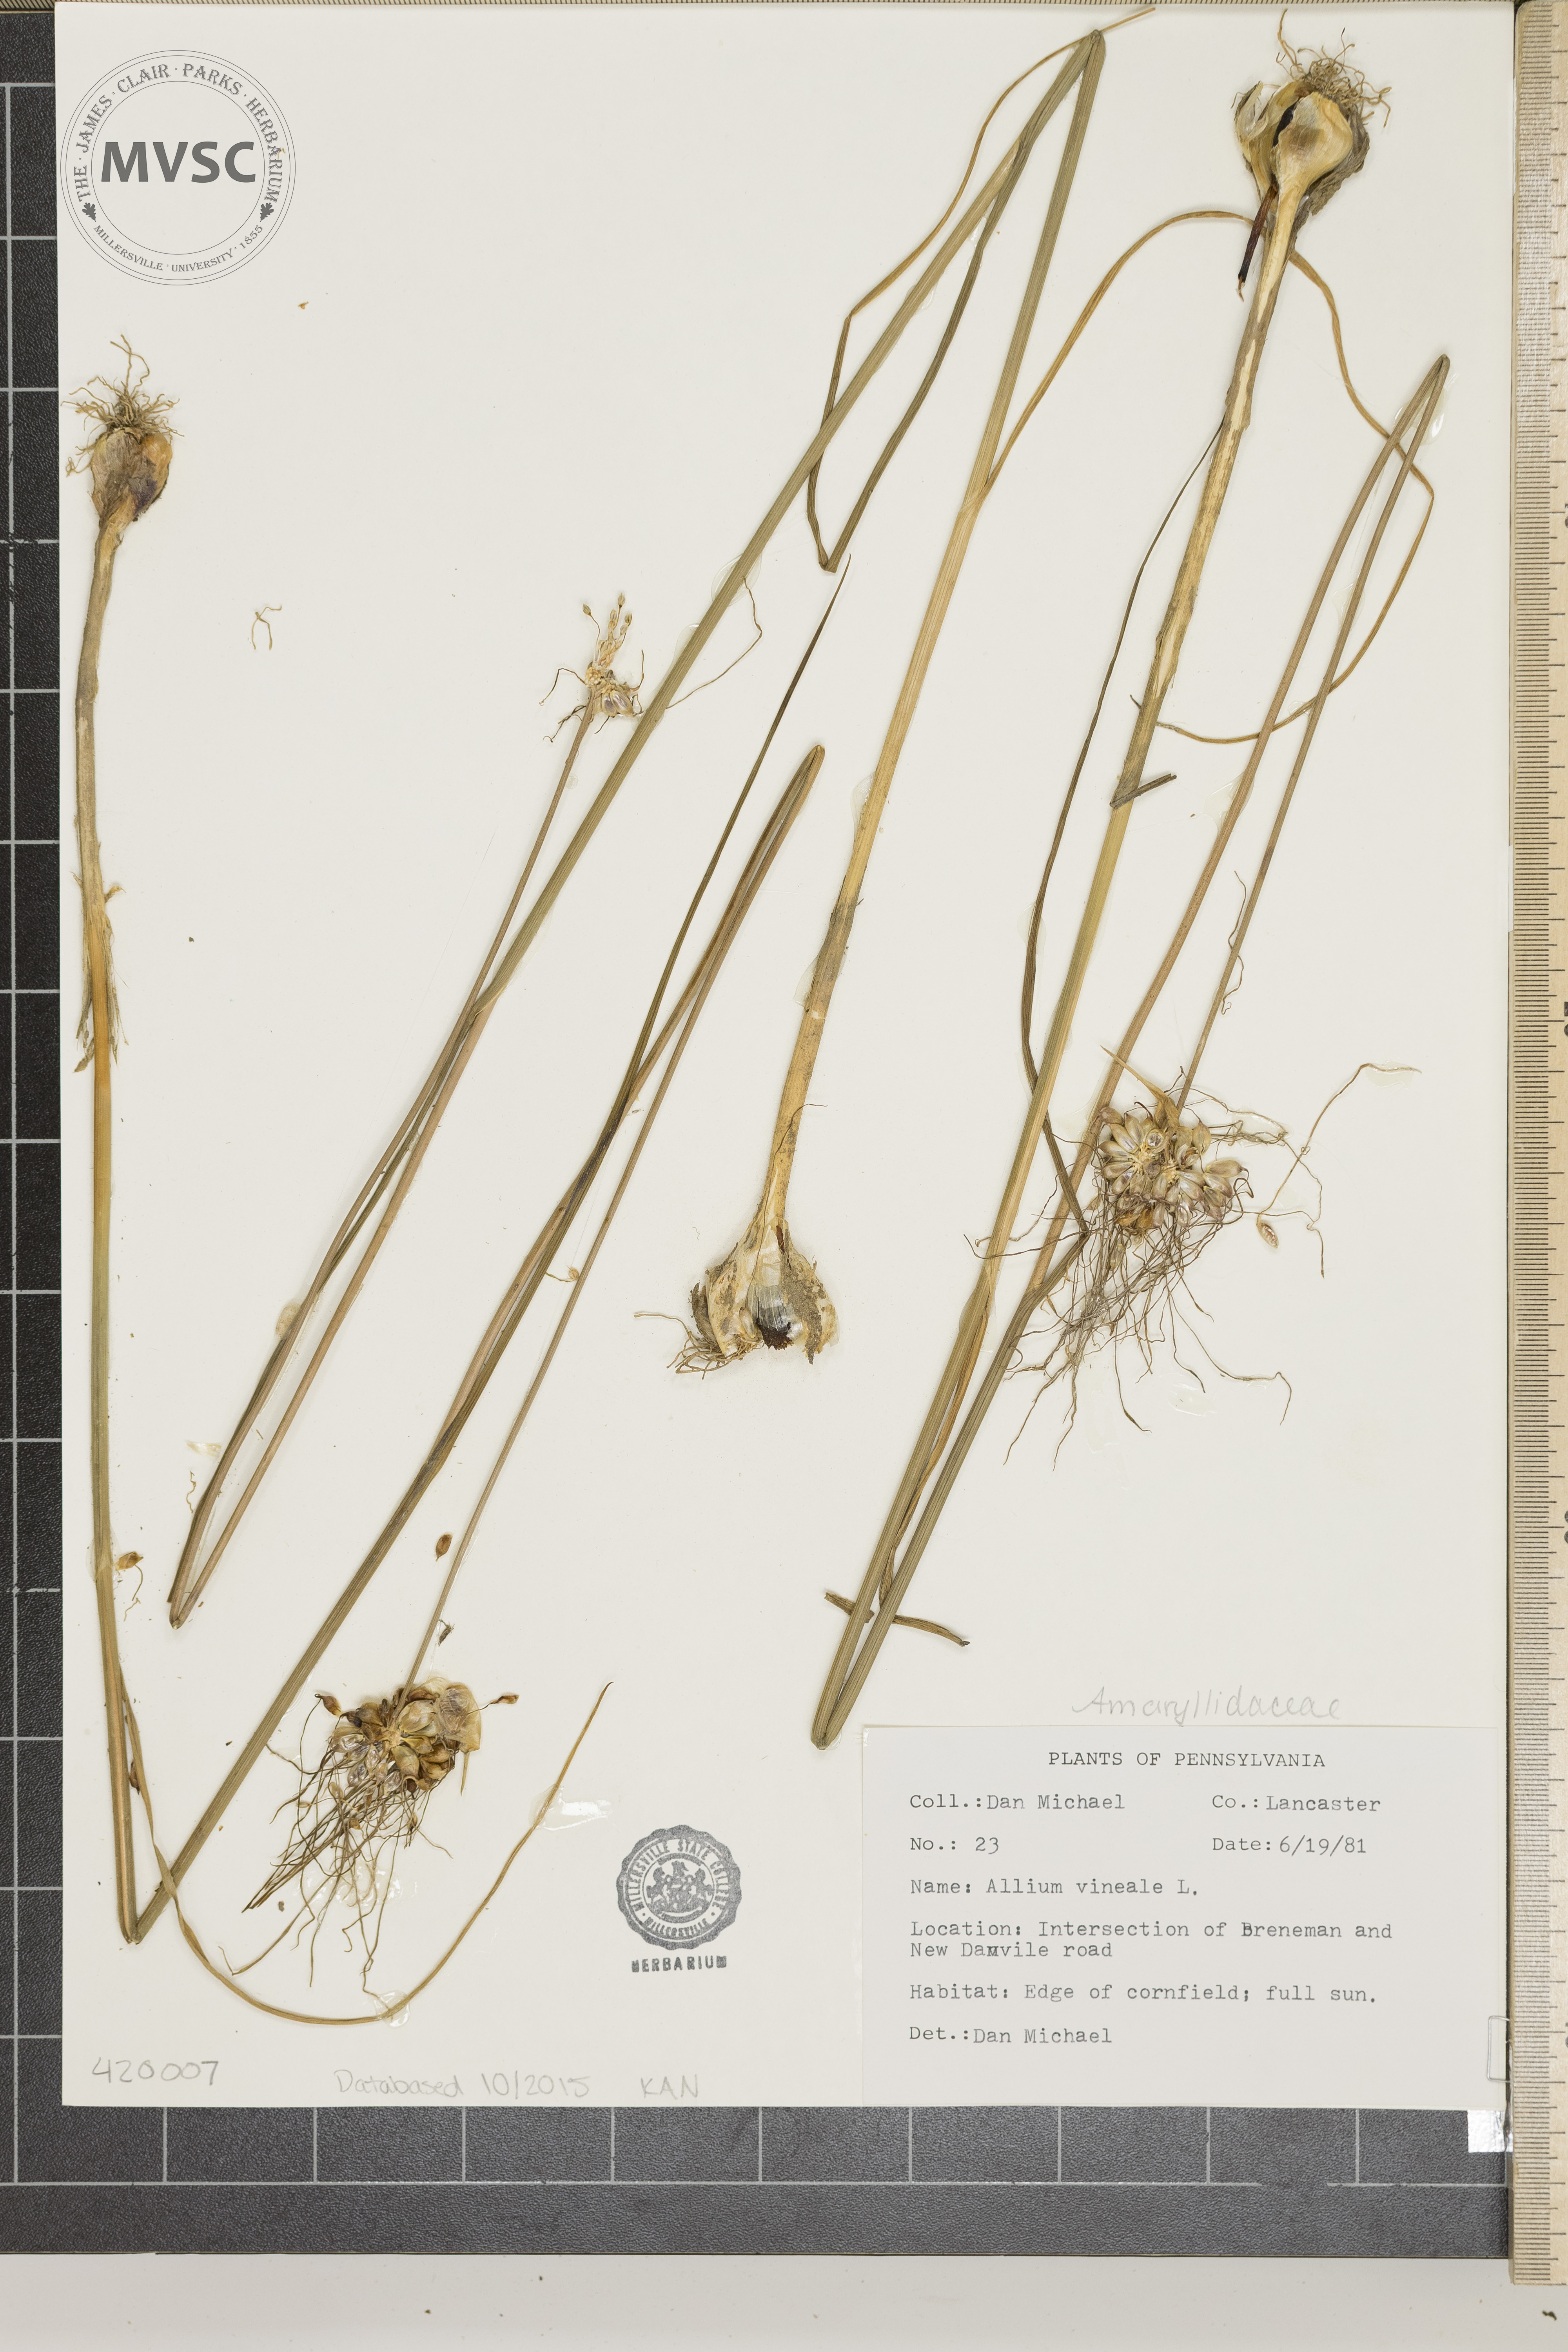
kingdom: Plantae
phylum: Tracheophyta
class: Liliopsida
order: Asparagales
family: Amaryllidaceae
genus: Allium
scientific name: Allium vineale
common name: Crow garlic
